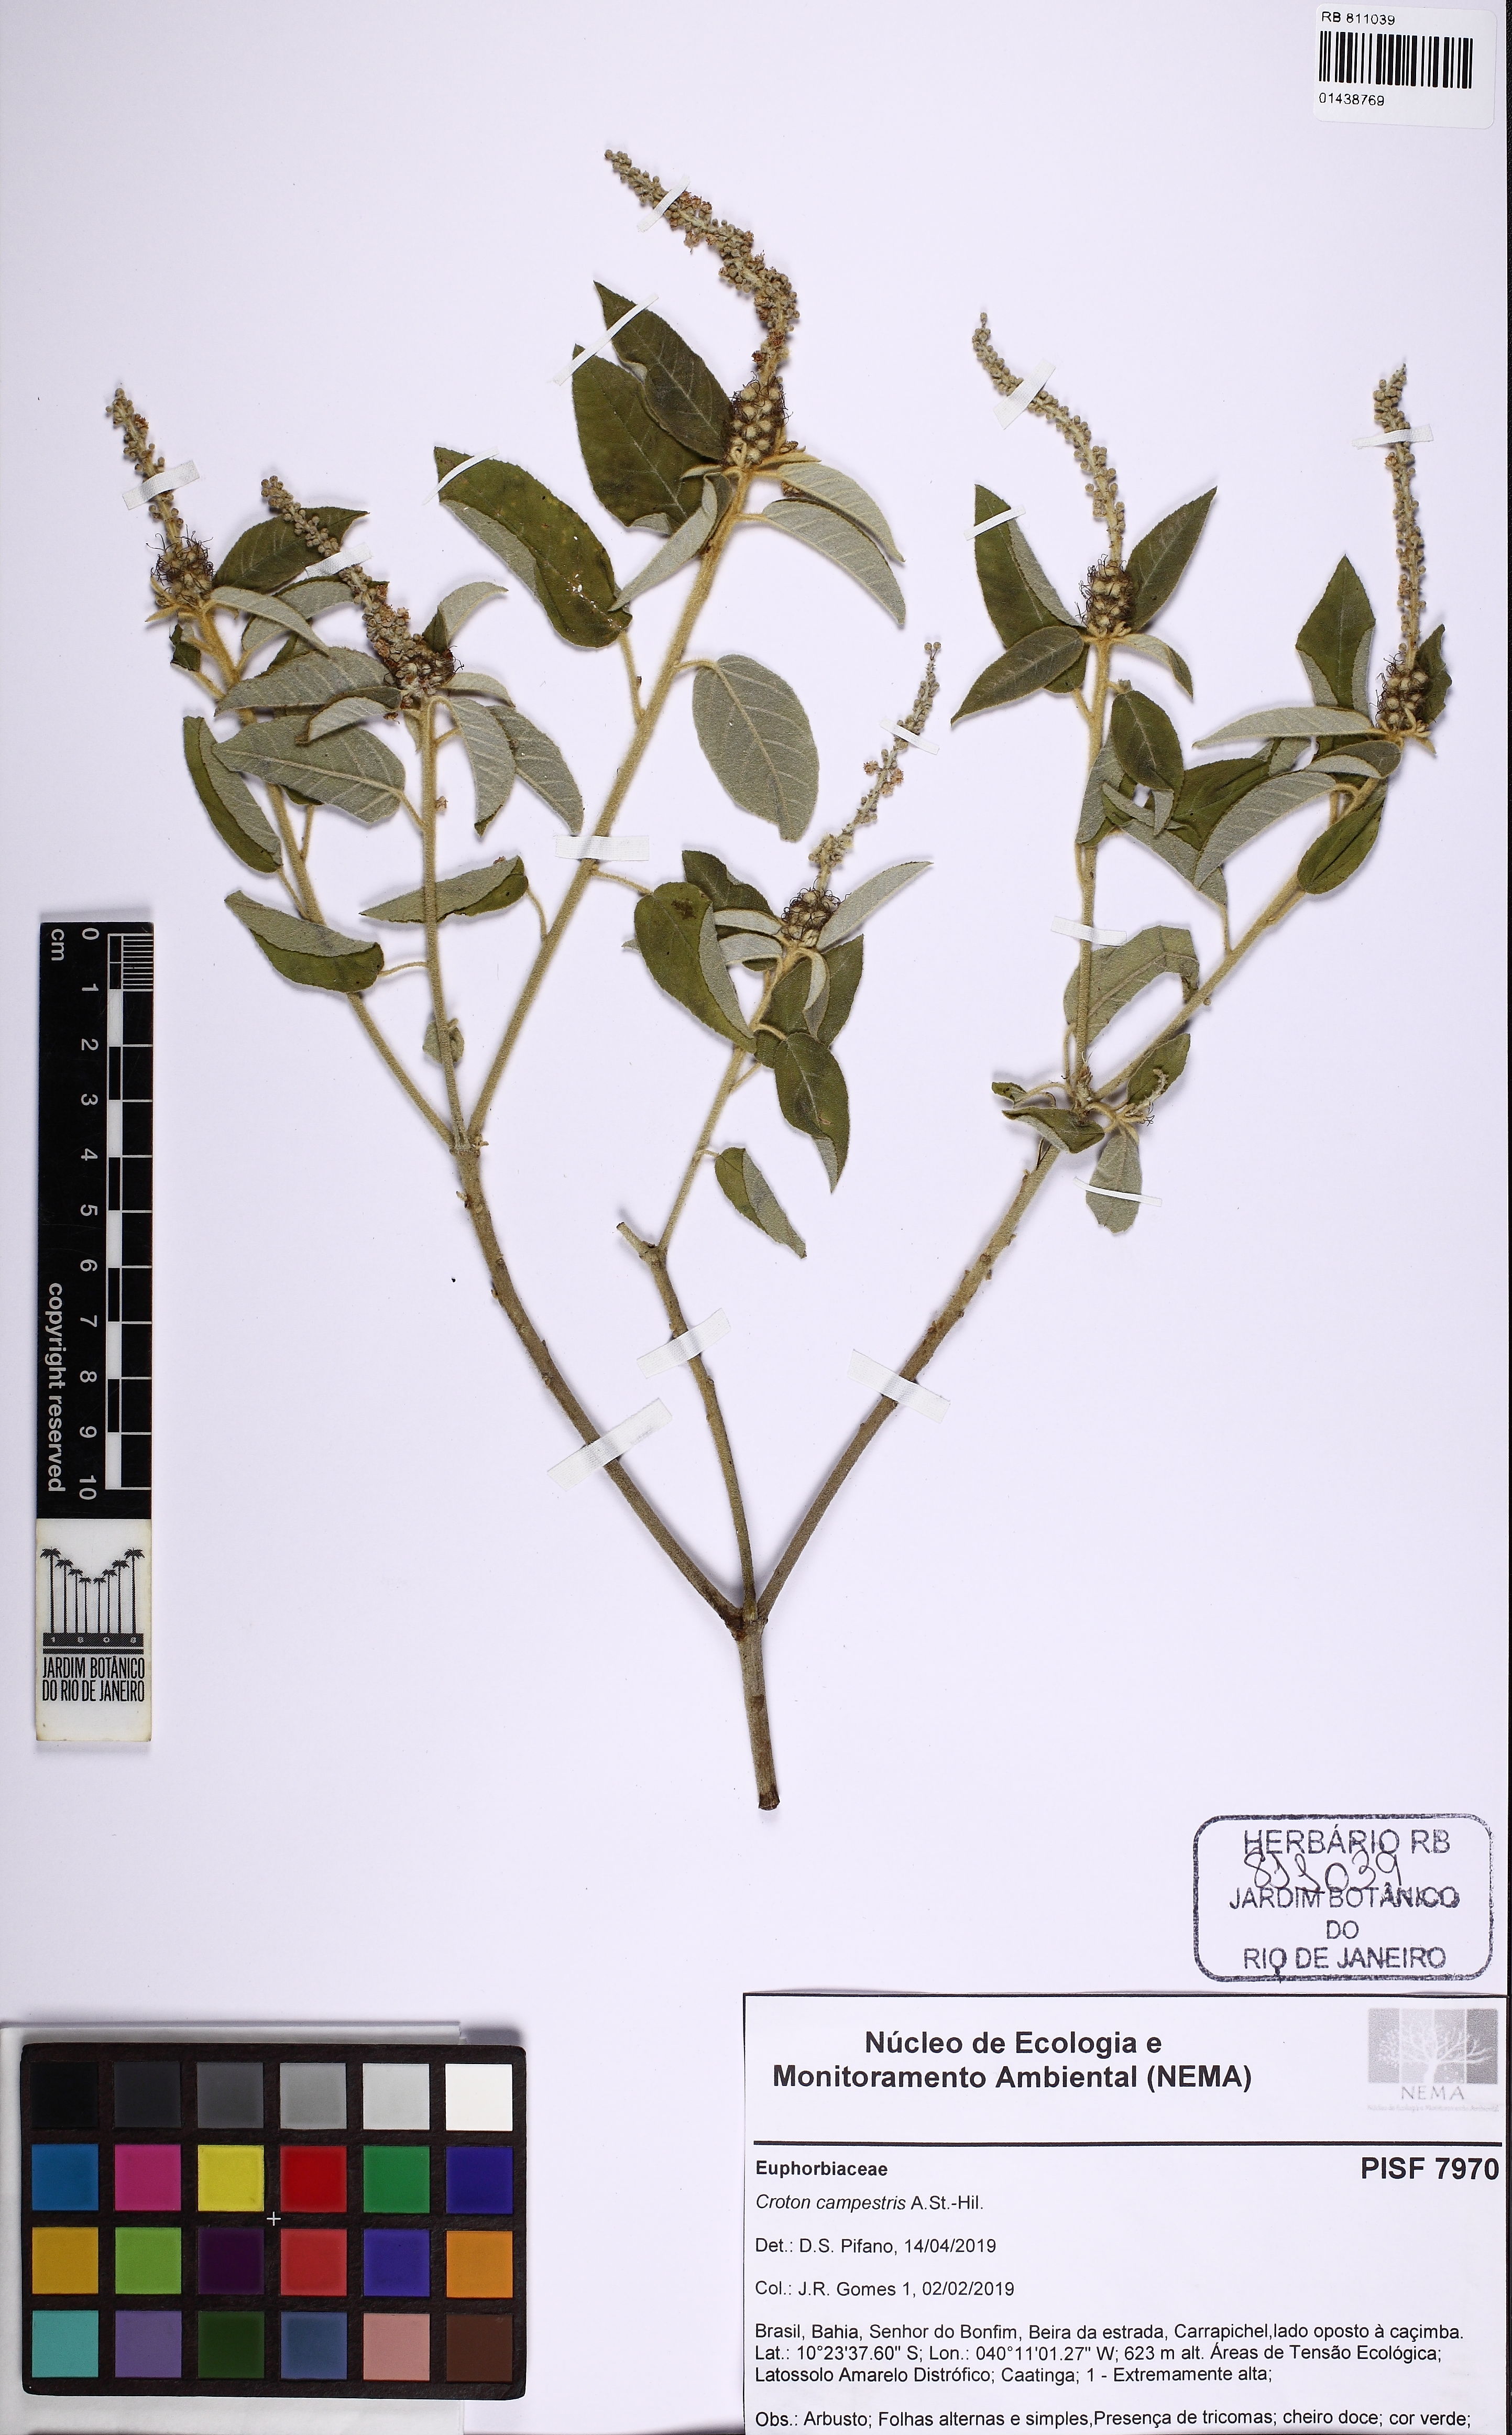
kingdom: Plantae
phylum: Tracheophyta
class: Magnoliopsida
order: Malpighiales
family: Euphorbiaceae
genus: Croton
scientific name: Croton campestris
